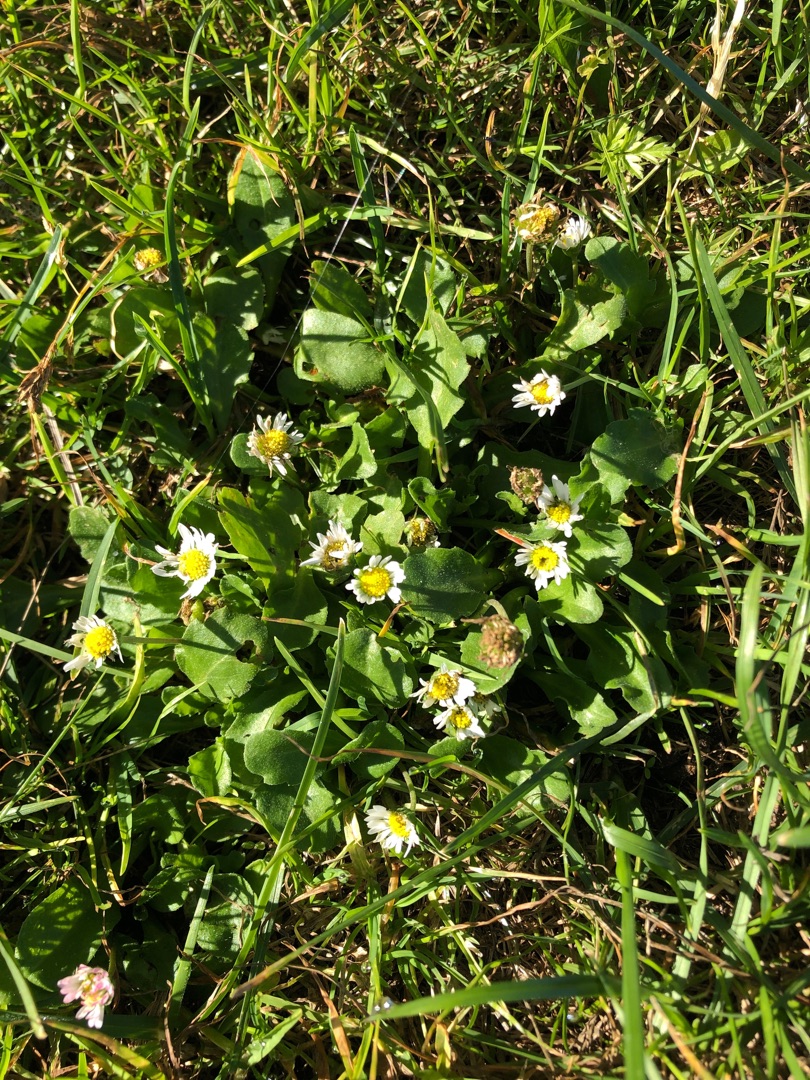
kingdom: Plantae
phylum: Tracheophyta
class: Magnoliopsida
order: Asterales
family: Asteraceae
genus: Bellis
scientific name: Bellis perennis
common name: Tusindfryd
